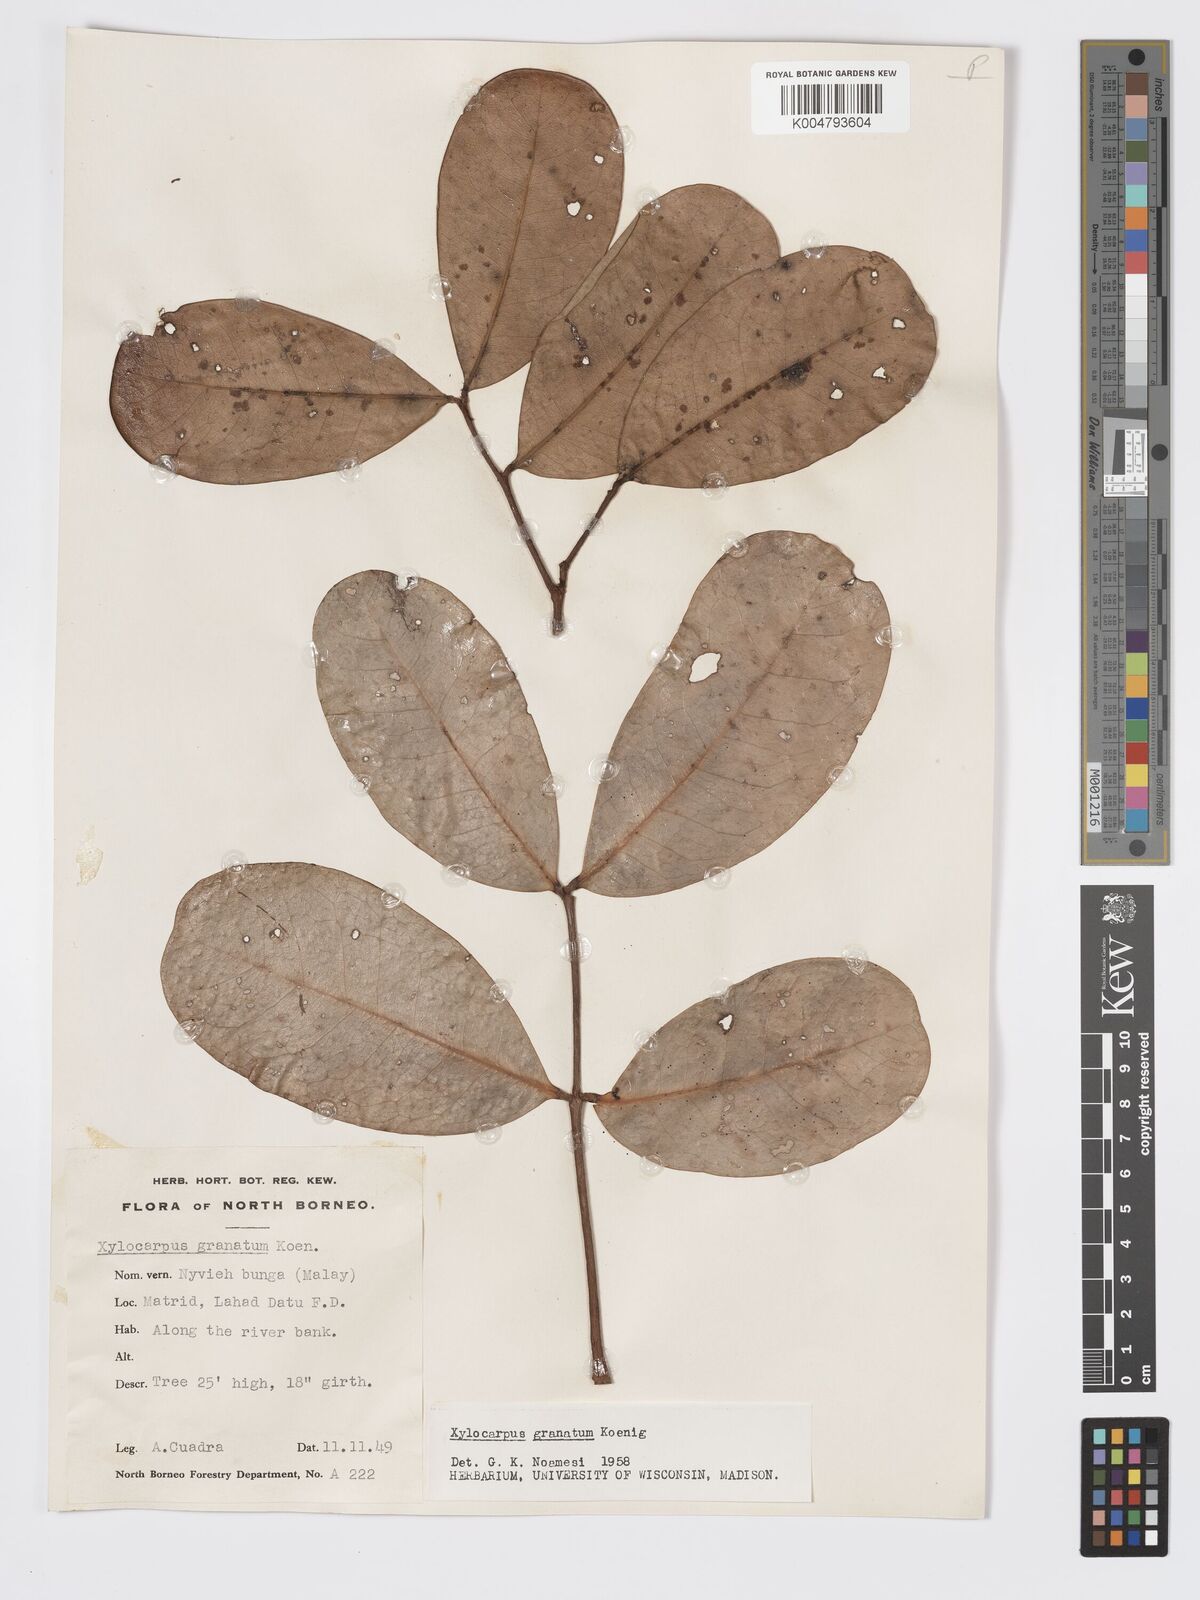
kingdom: Plantae
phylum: Tracheophyta
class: Magnoliopsida
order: Sapindales
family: Meliaceae
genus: Xylocarpus
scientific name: Xylocarpus granatum
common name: Apple mangrove
